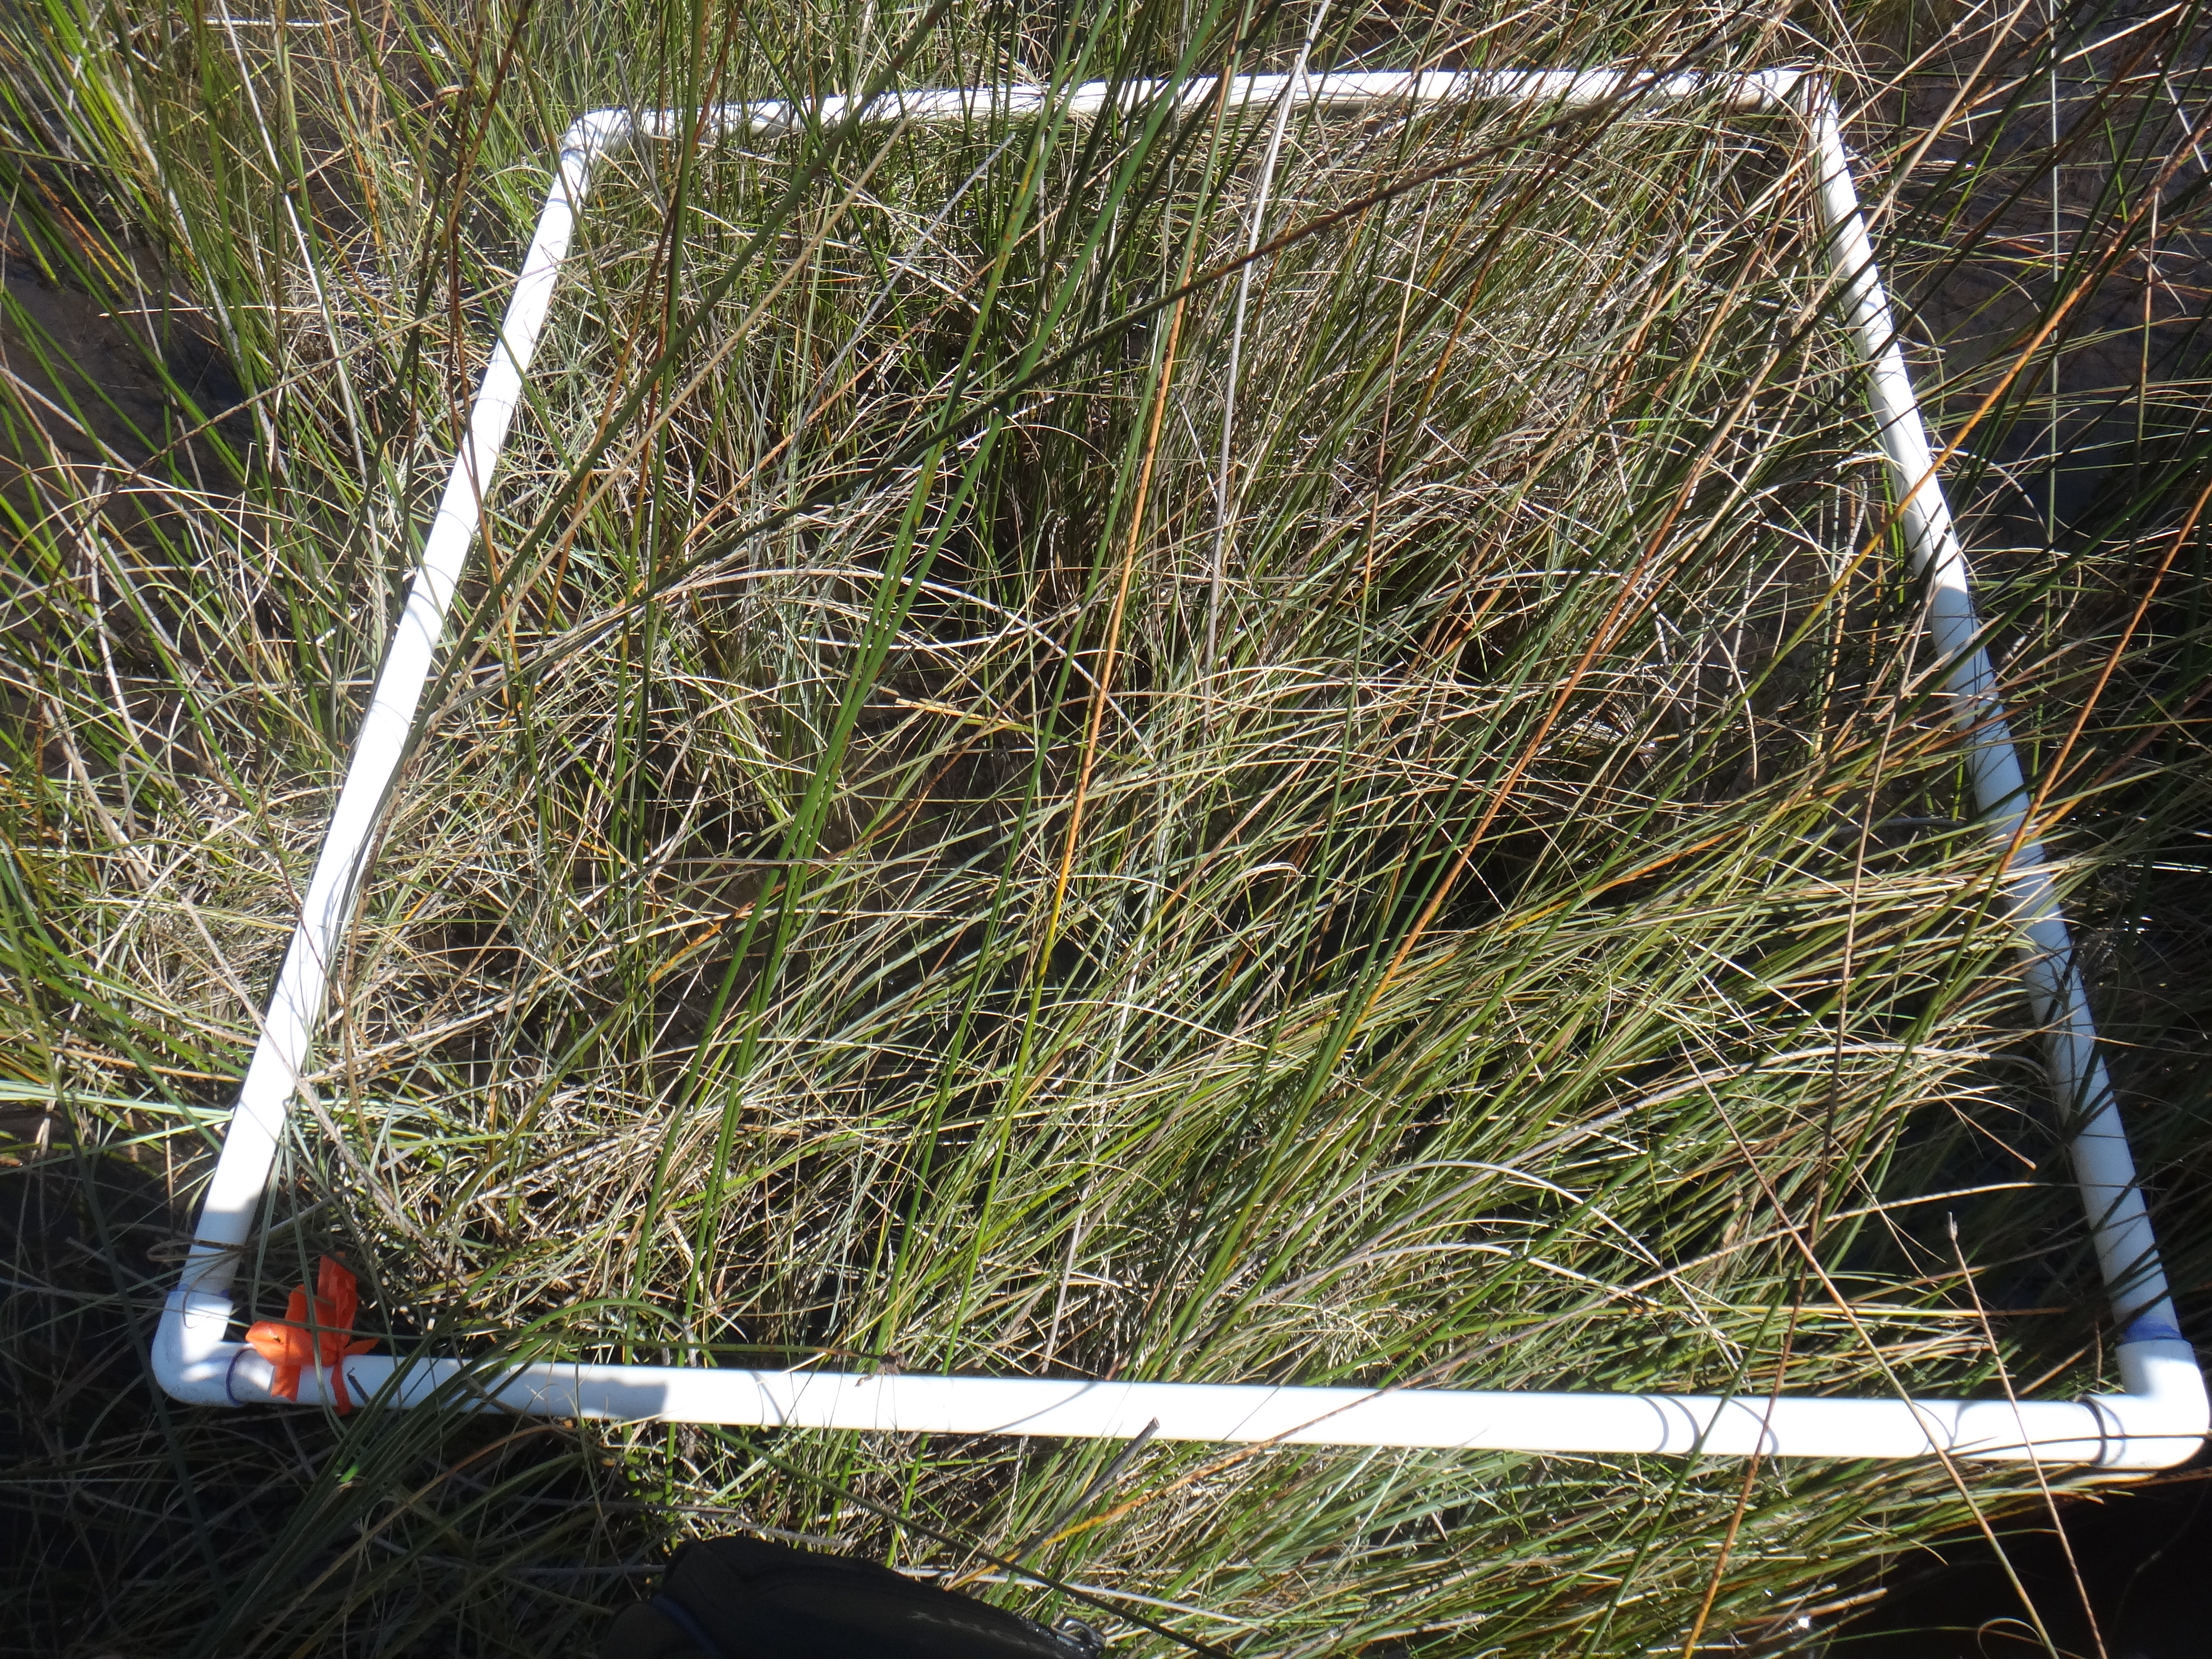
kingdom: Plantae
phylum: Tracheophyta
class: Liliopsida
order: Poales
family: Cyperaceae
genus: Eleocharis
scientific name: Eleocharis intermedia
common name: Intermediate spikerush
